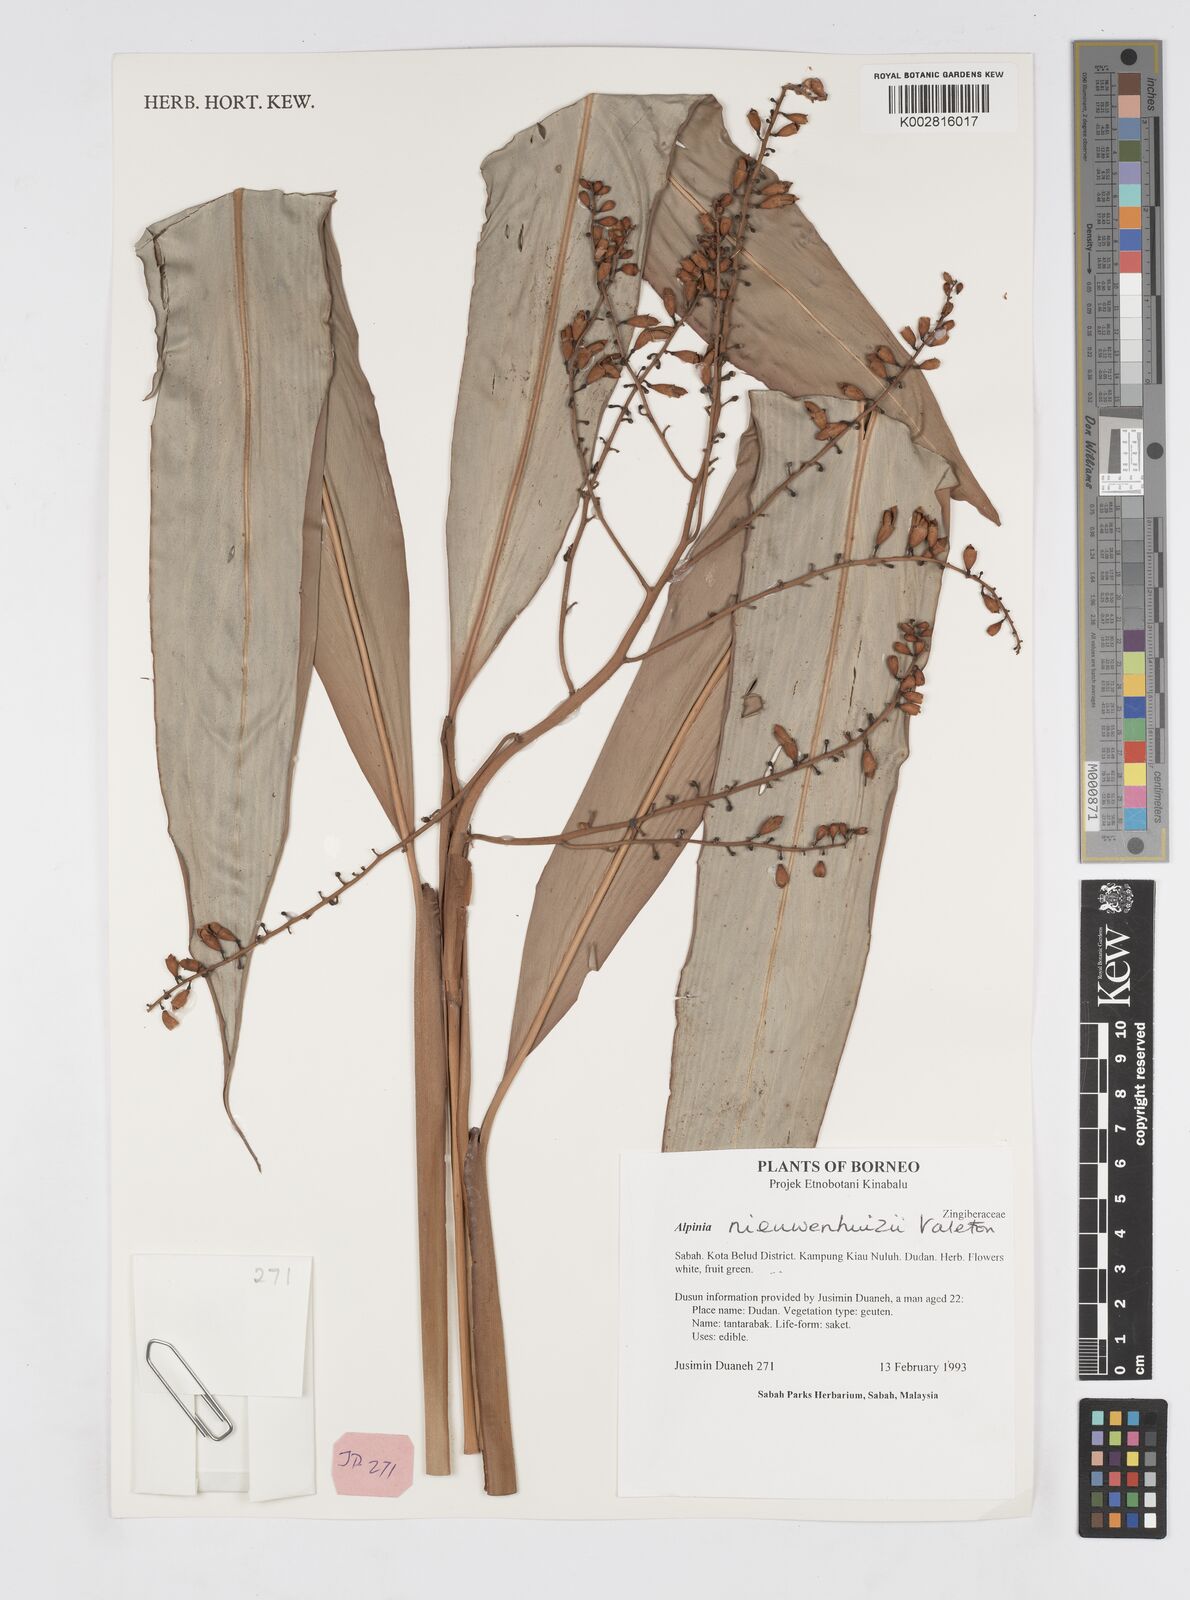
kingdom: Plantae
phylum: Tracheophyta
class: Liliopsida
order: Zingiberales
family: Zingiberaceae
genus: Alpinia
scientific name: Alpinia nieuwenhuizii
